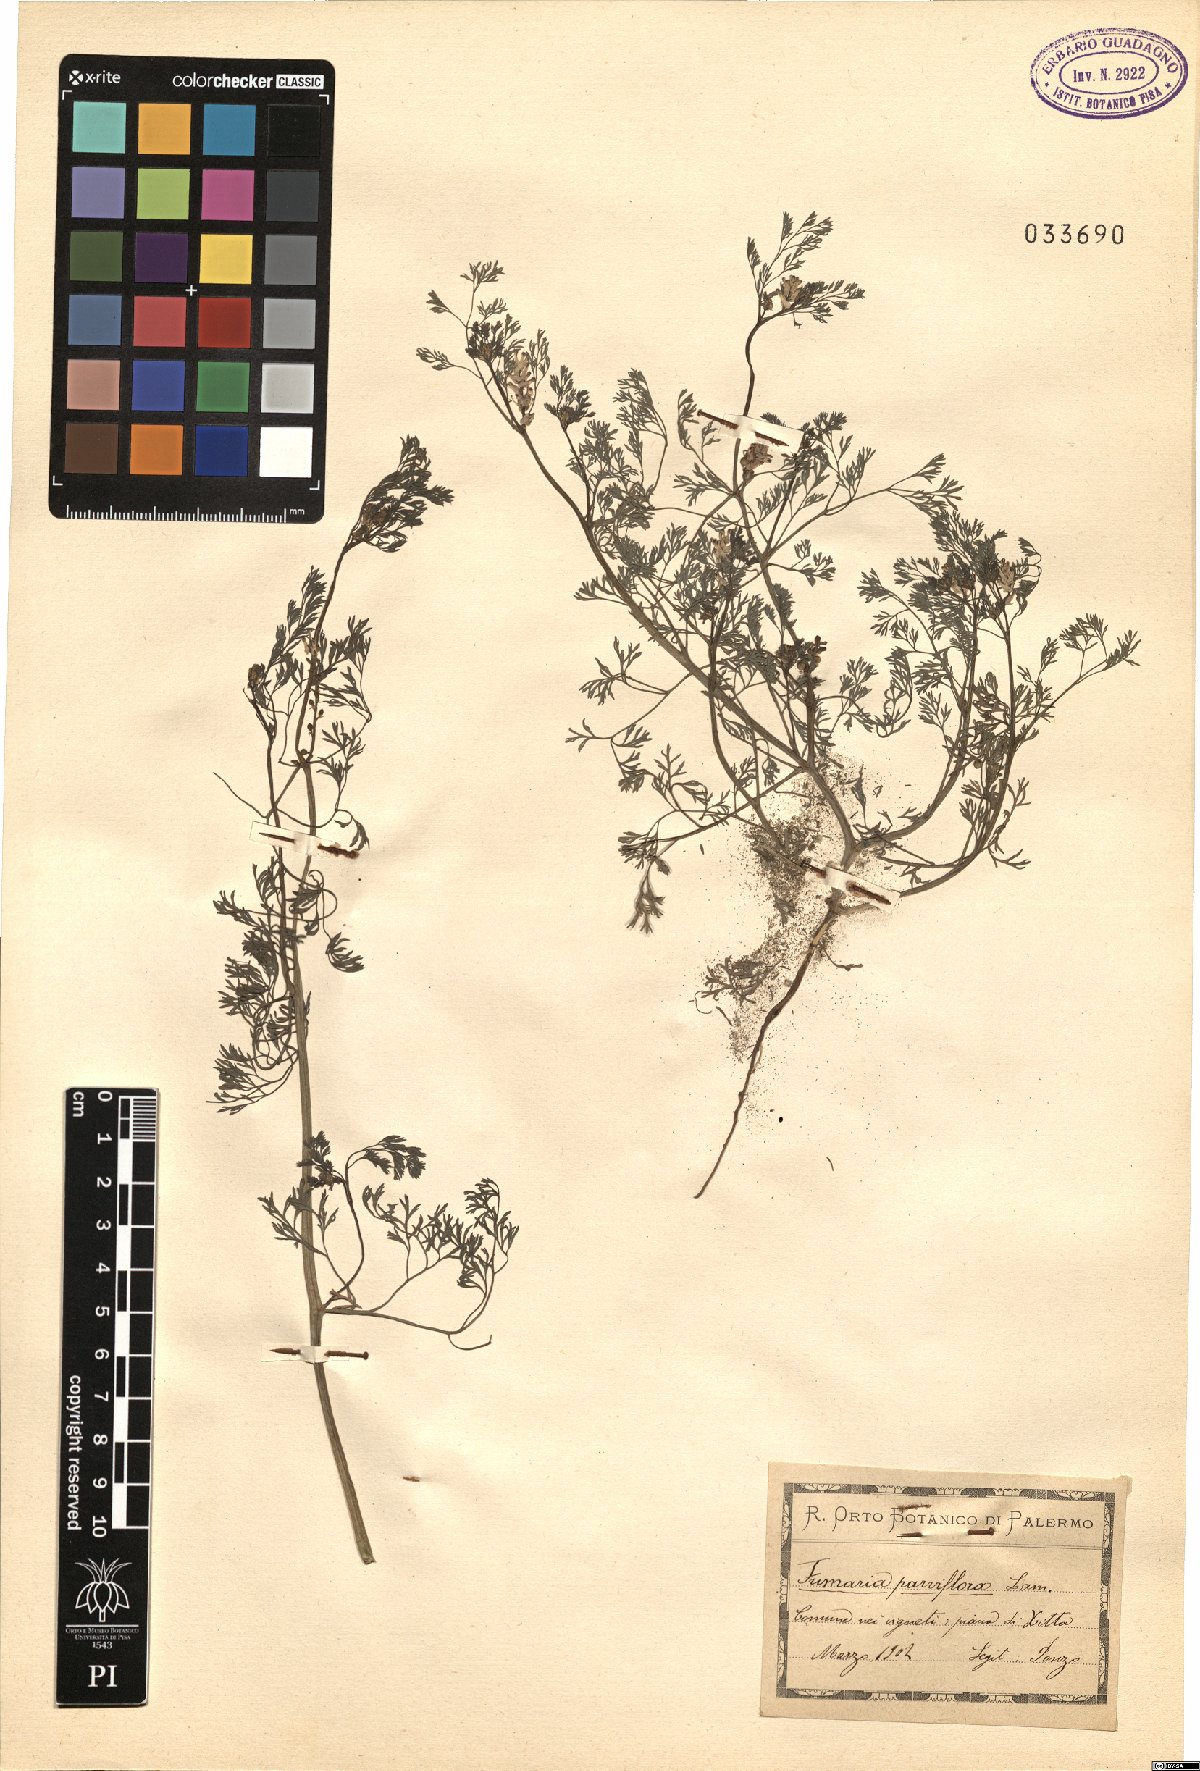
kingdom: Plantae
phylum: Tracheophyta
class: Magnoliopsida
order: Ranunculales
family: Papaveraceae
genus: Fumaria
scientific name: Fumaria parviflora
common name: Fine-leaved fumitory
